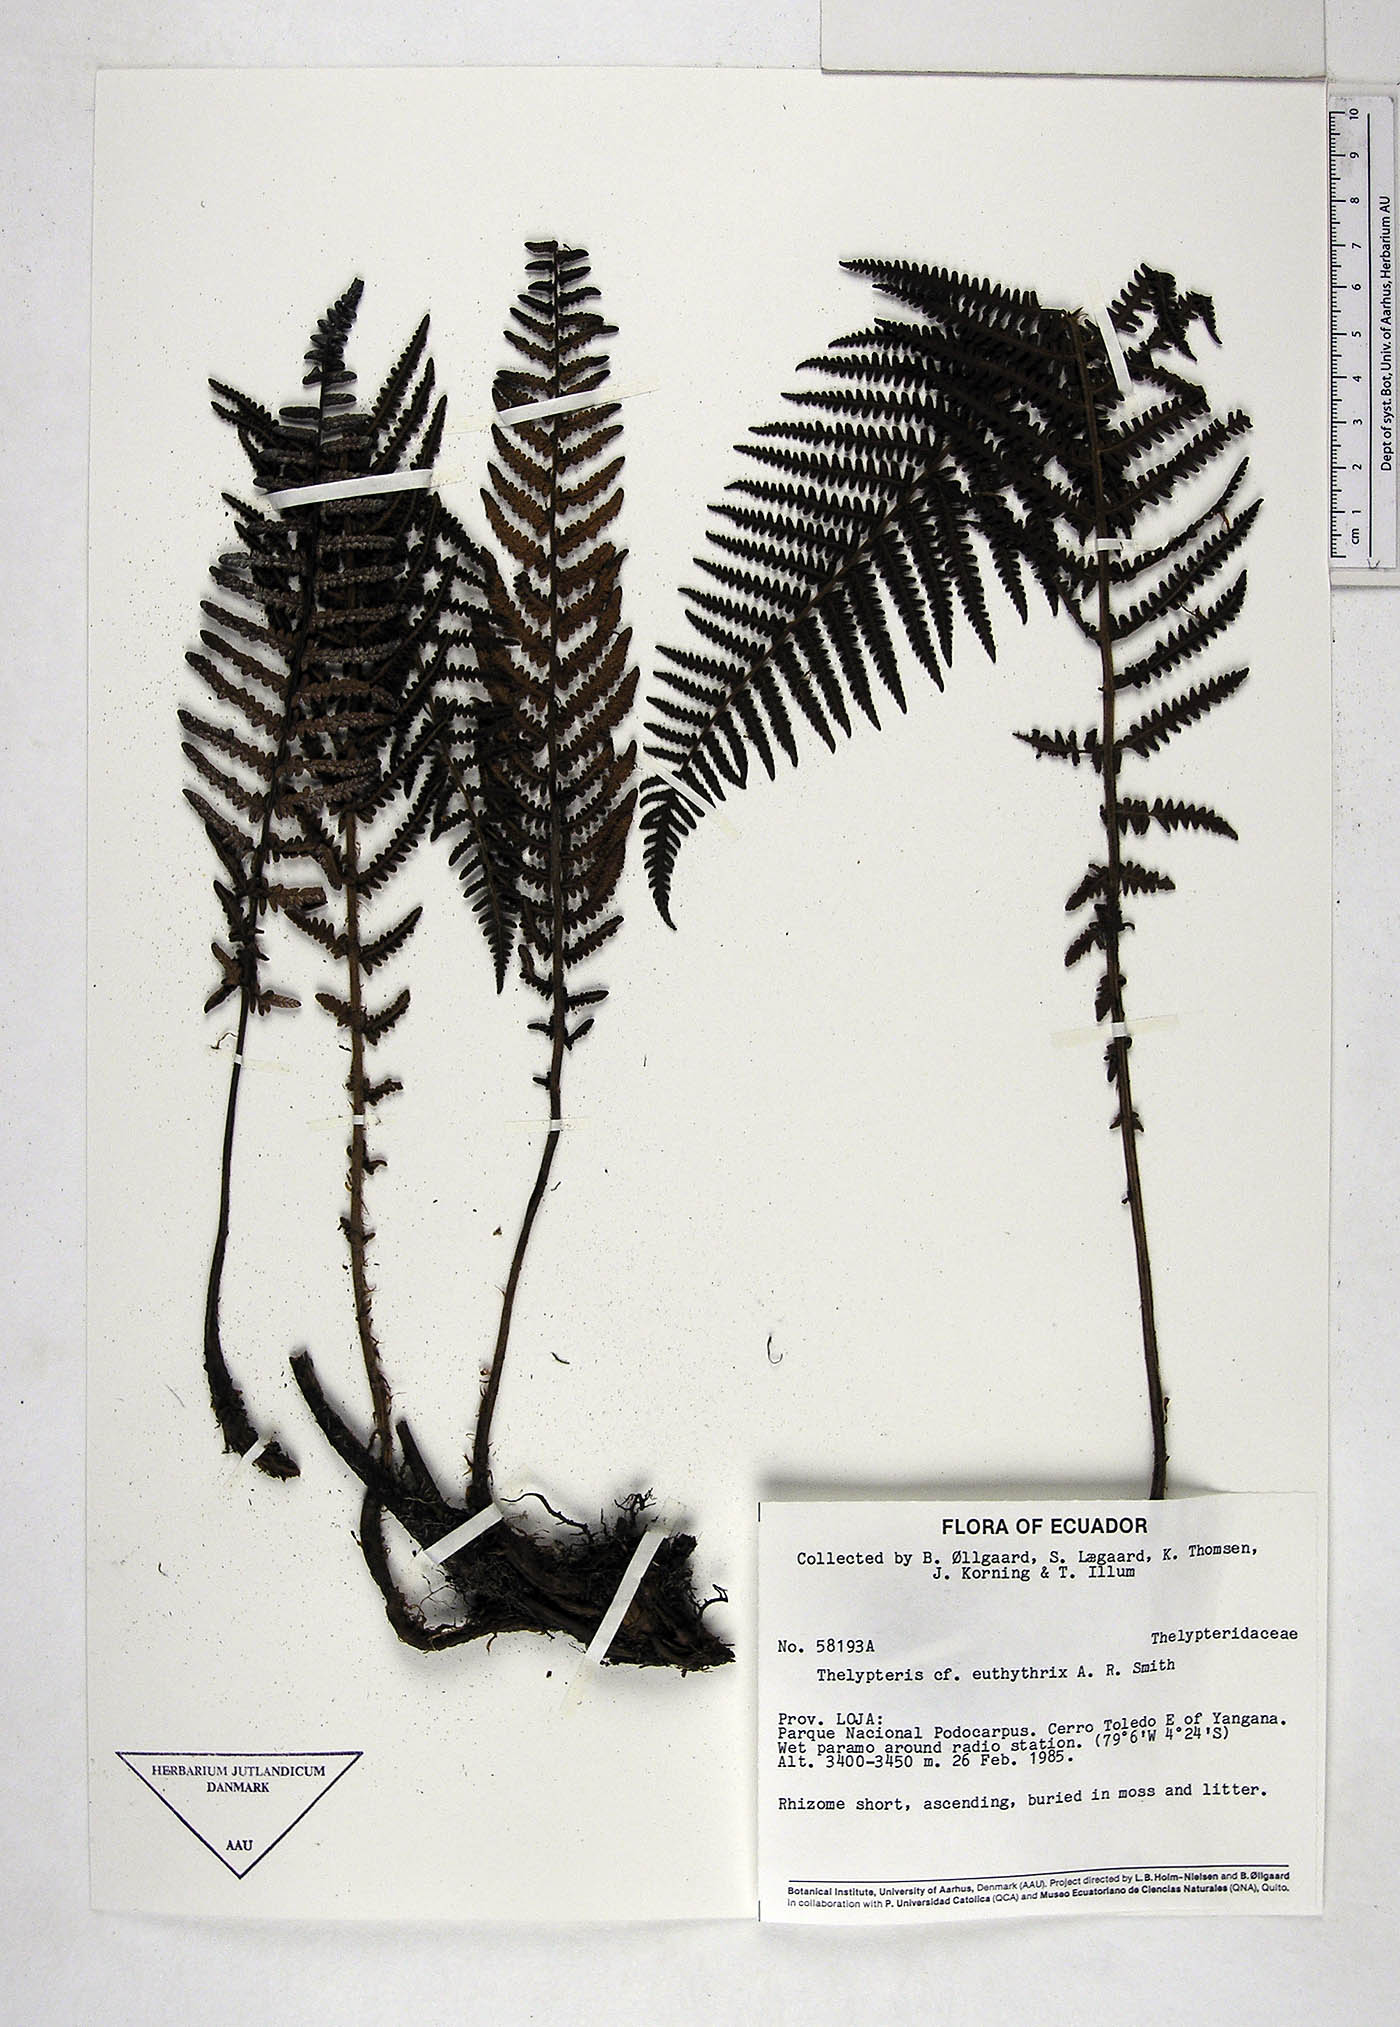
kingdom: Plantae
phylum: Tracheophyta
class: Polypodiopsida
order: Polypodiales
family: Thelypteridaceae
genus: Amauropelta
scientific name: Amauropelta euthythrix
